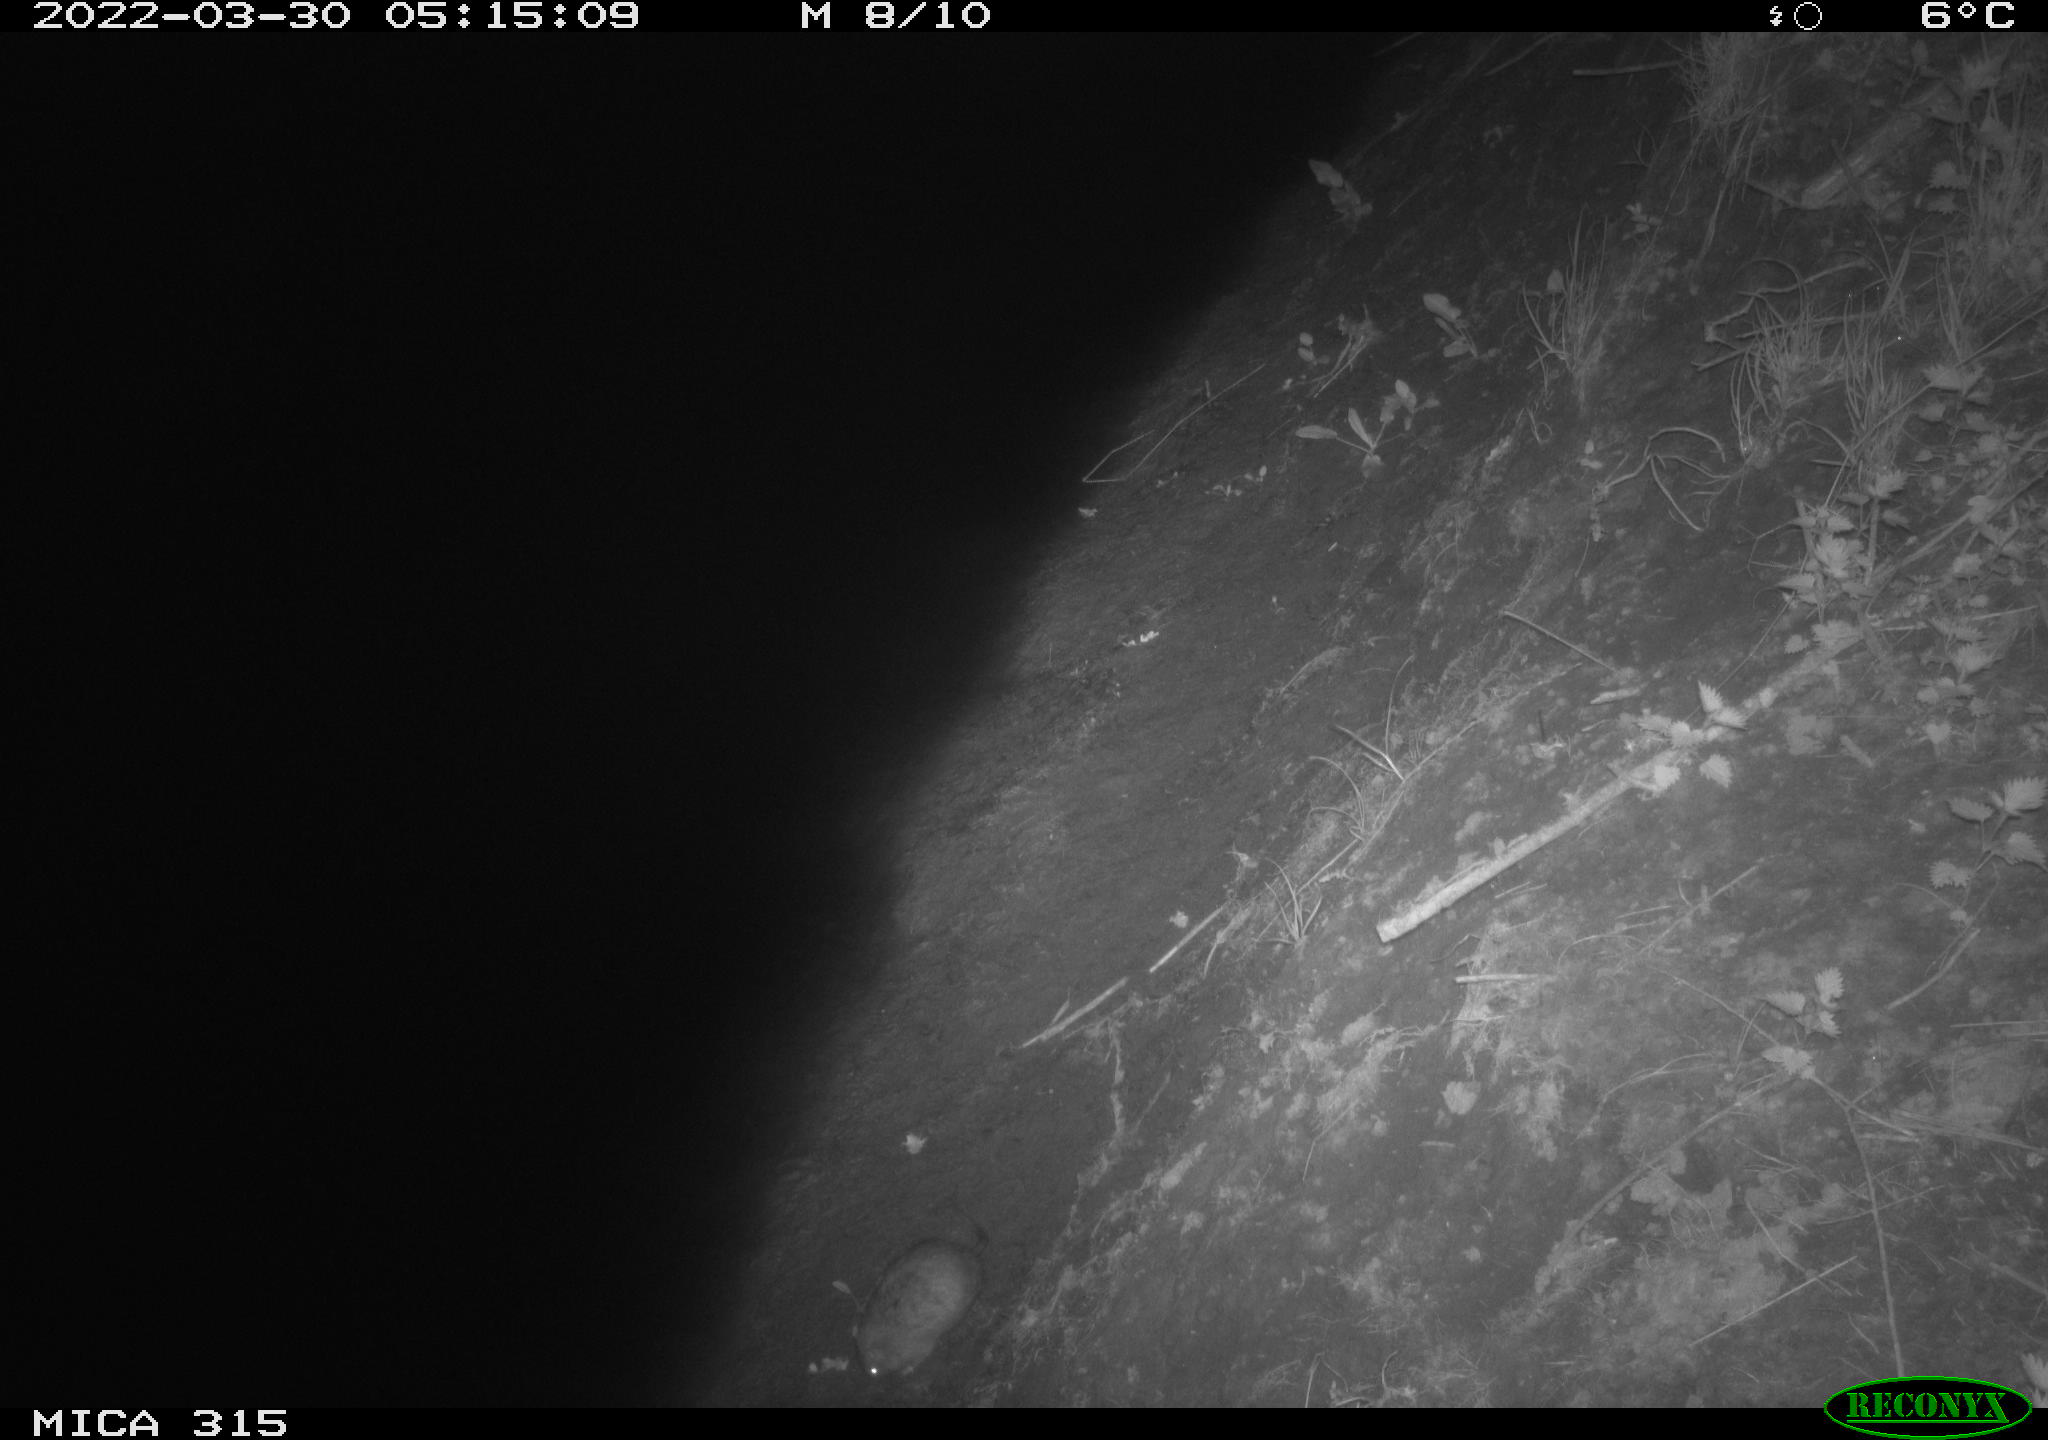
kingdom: Animalia
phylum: Chordata
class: Mammalia
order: Rodentia
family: Muridae
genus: Rattus
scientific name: Rattus norvegicus
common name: Brown rat
